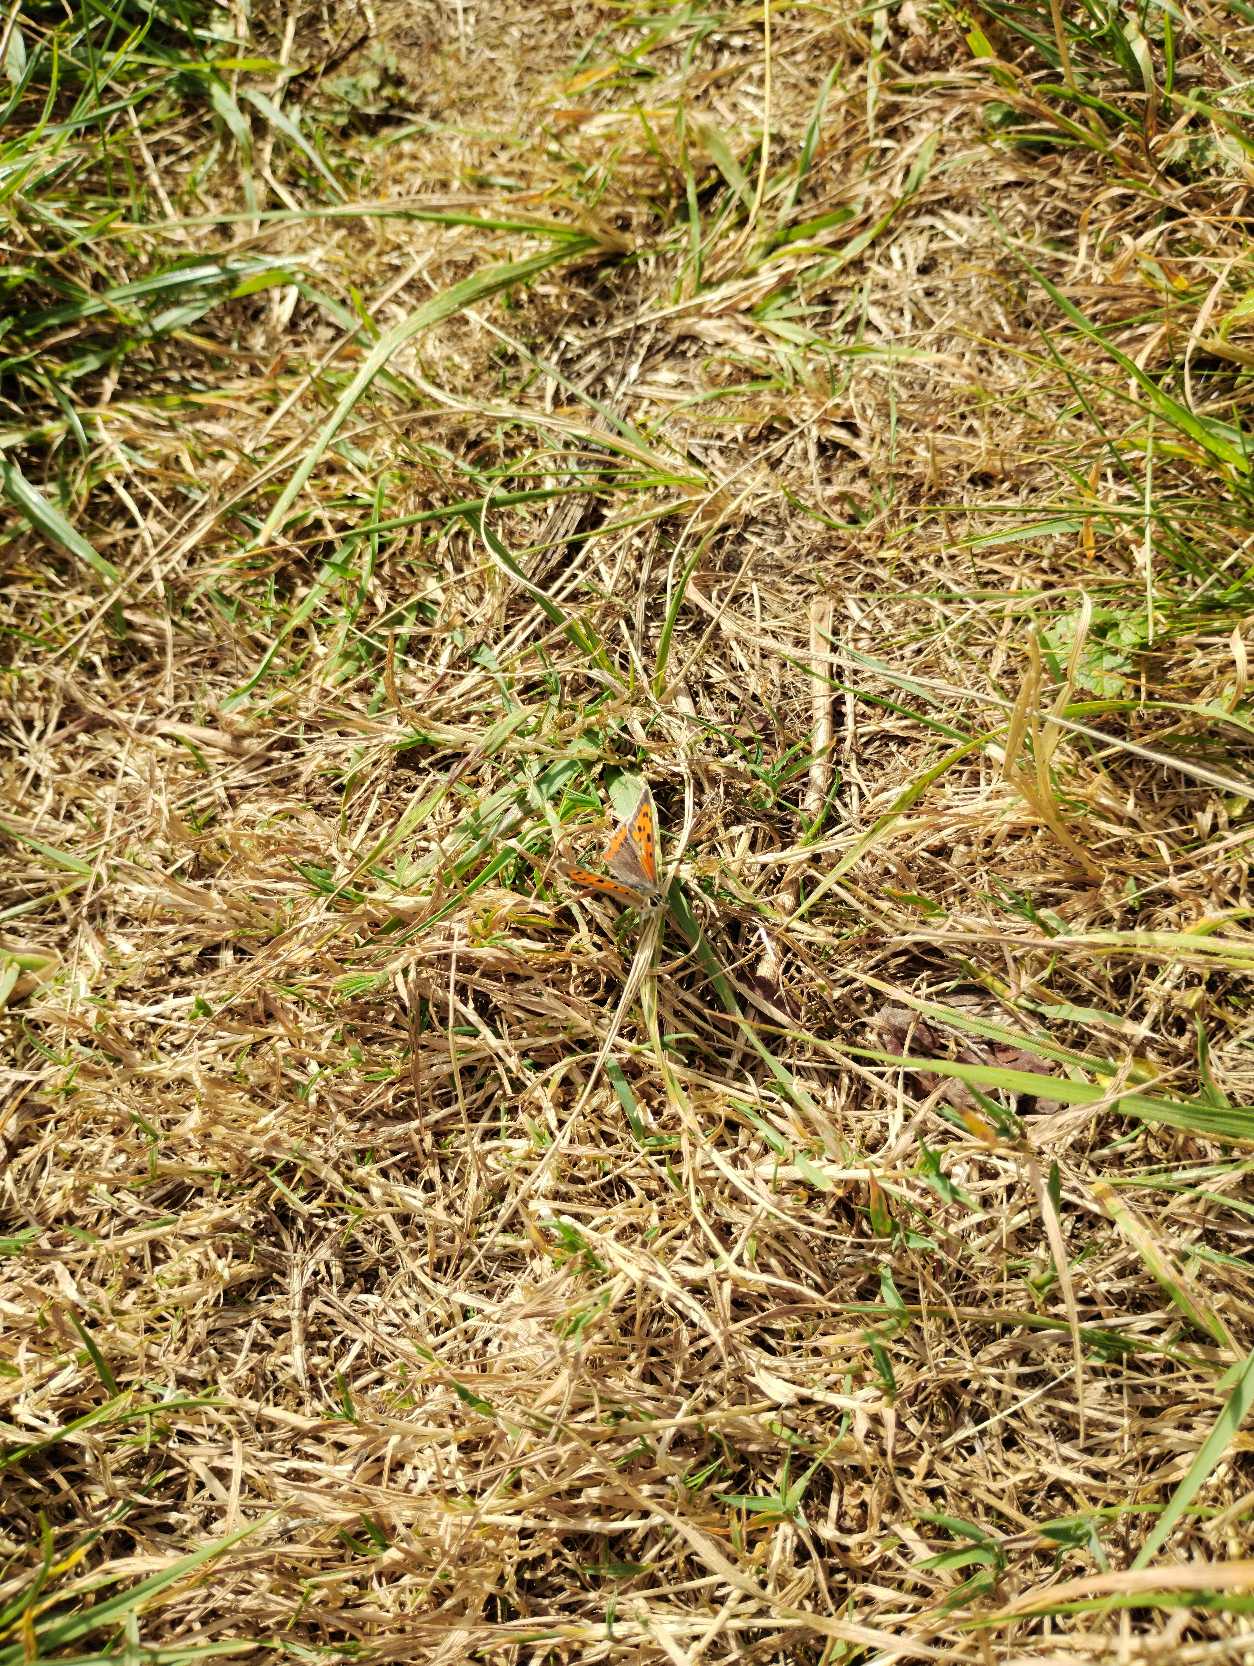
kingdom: Animalia
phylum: Arthropoda
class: Insecta
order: Lepidoptera
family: Lycaenidae
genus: Lycaena
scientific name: Lycaena phlaeas
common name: Lille ildfugl
